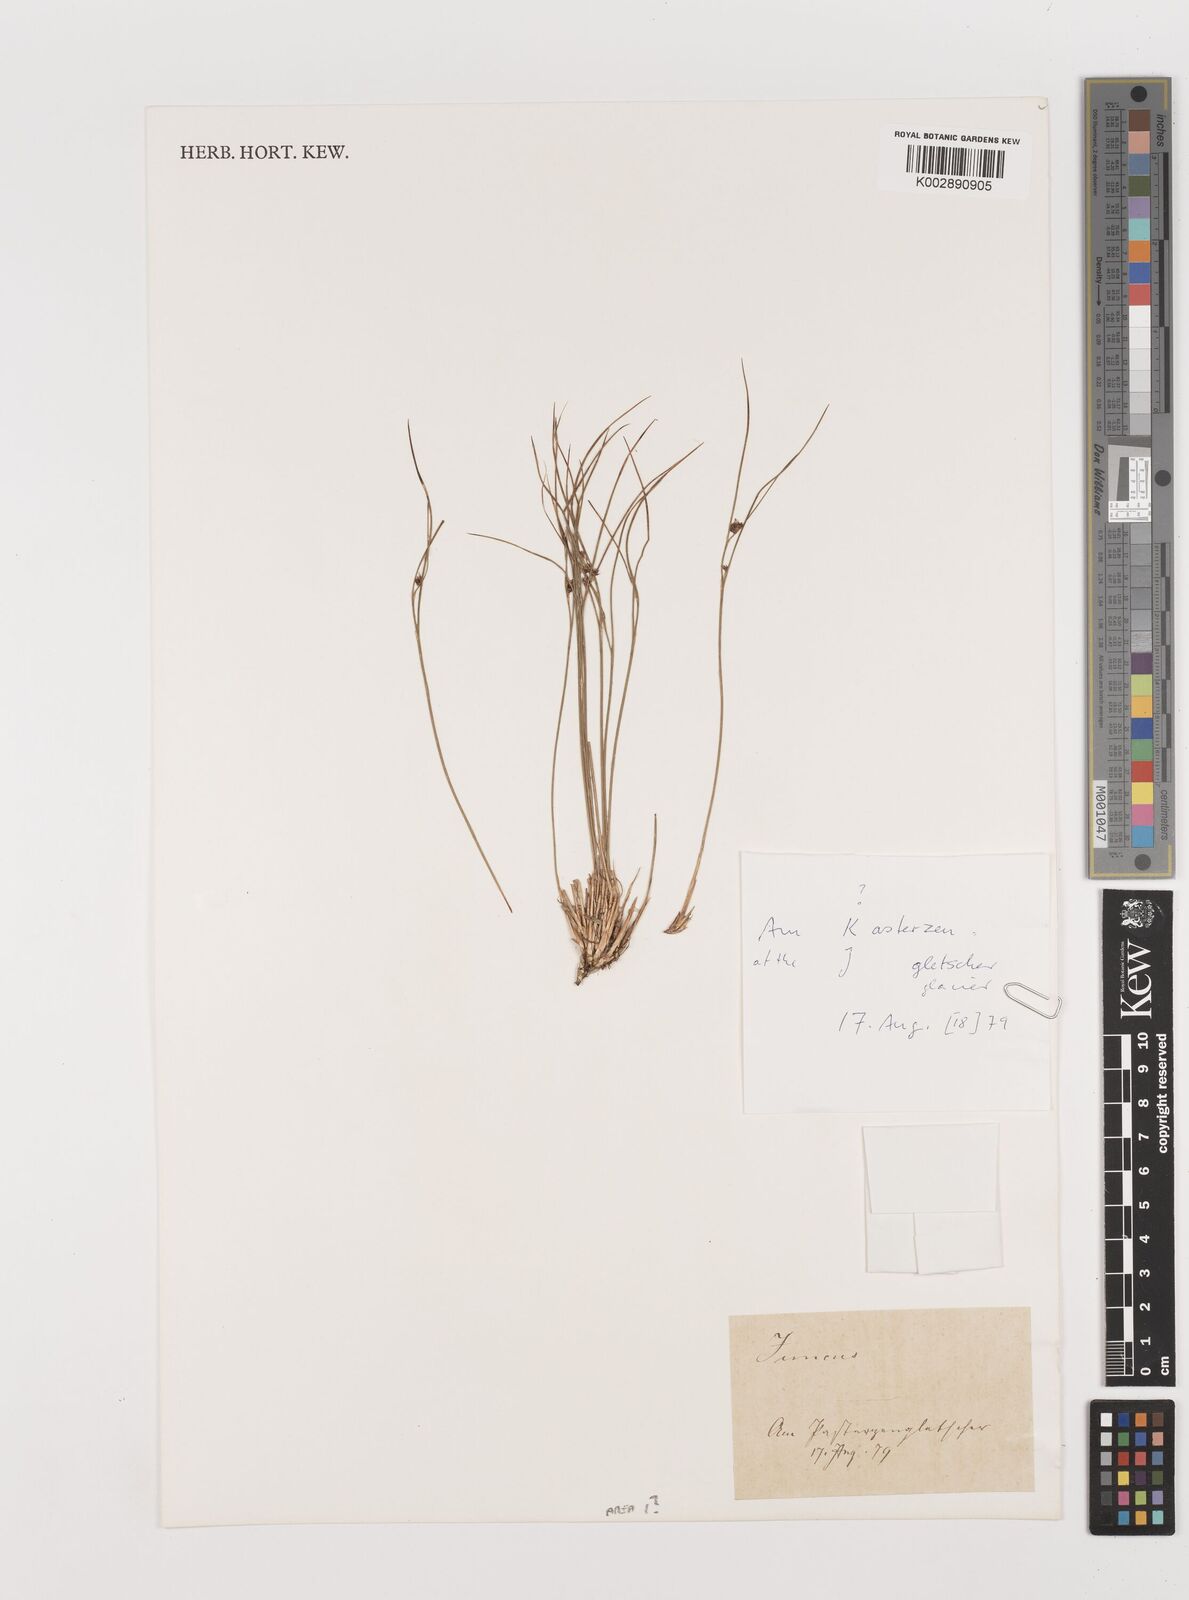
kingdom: Plantae
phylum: Tracheophyta
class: Liliopsida
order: Poales
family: Juncaceae
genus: Juncus
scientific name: Juncus
